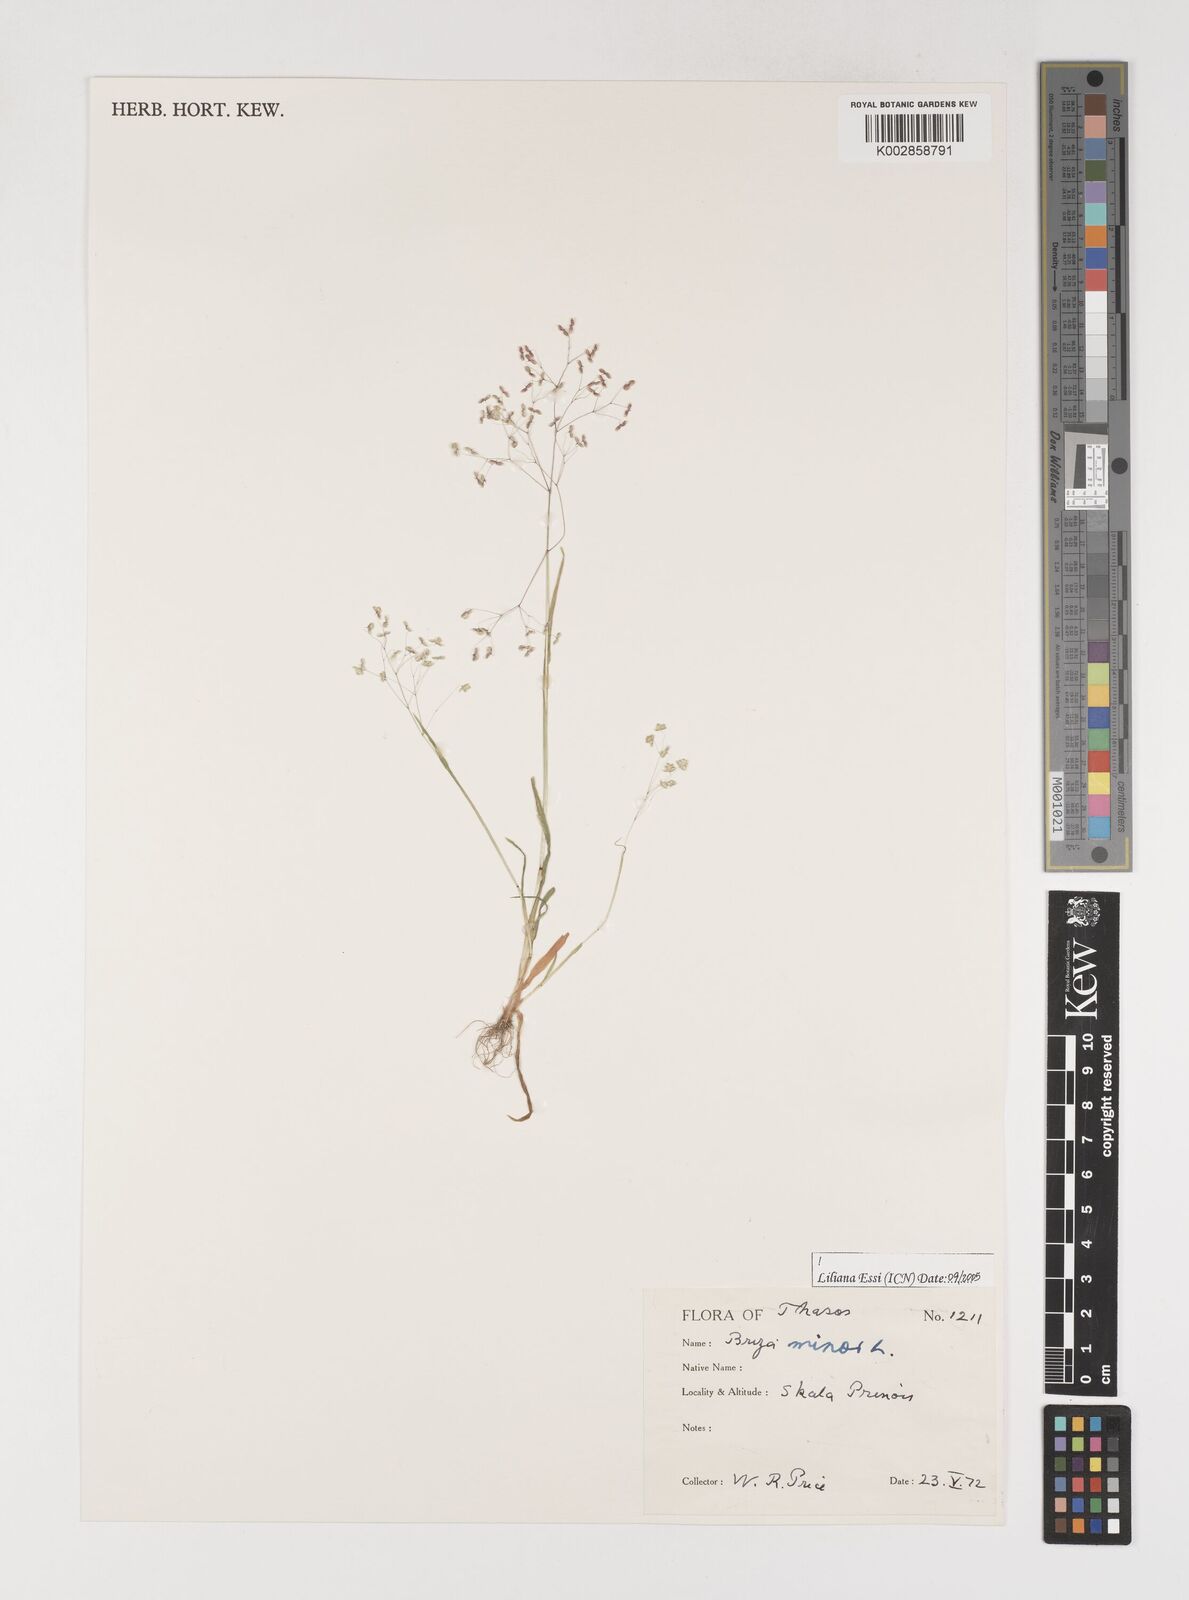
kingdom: Plantae
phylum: Tracheophyta
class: Liliopsida
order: Poales
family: Poaceae
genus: Briza
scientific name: Briza minor
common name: Lesser quaking-grass
